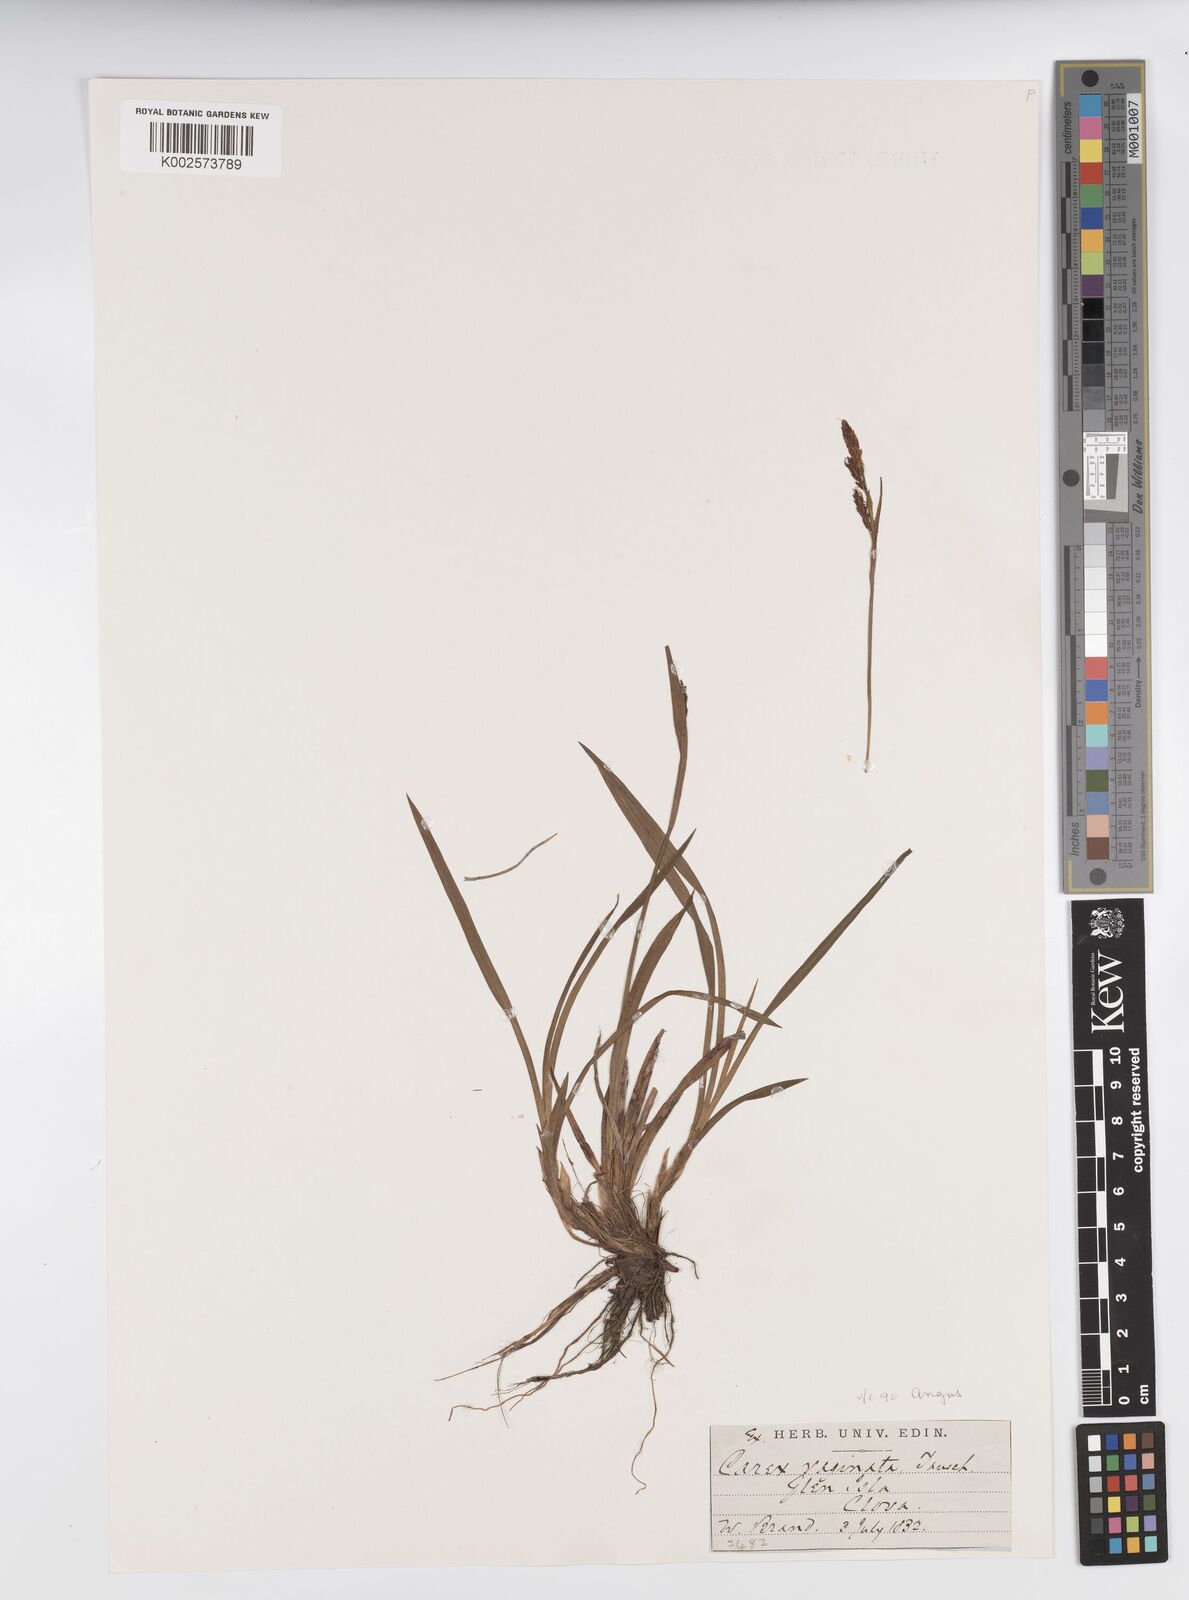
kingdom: Plantae
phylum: Tracheophyta
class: Liliopsida
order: Poales
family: Cyperaceae
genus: Carex
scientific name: Carex vaginata
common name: Sheathed sedge
